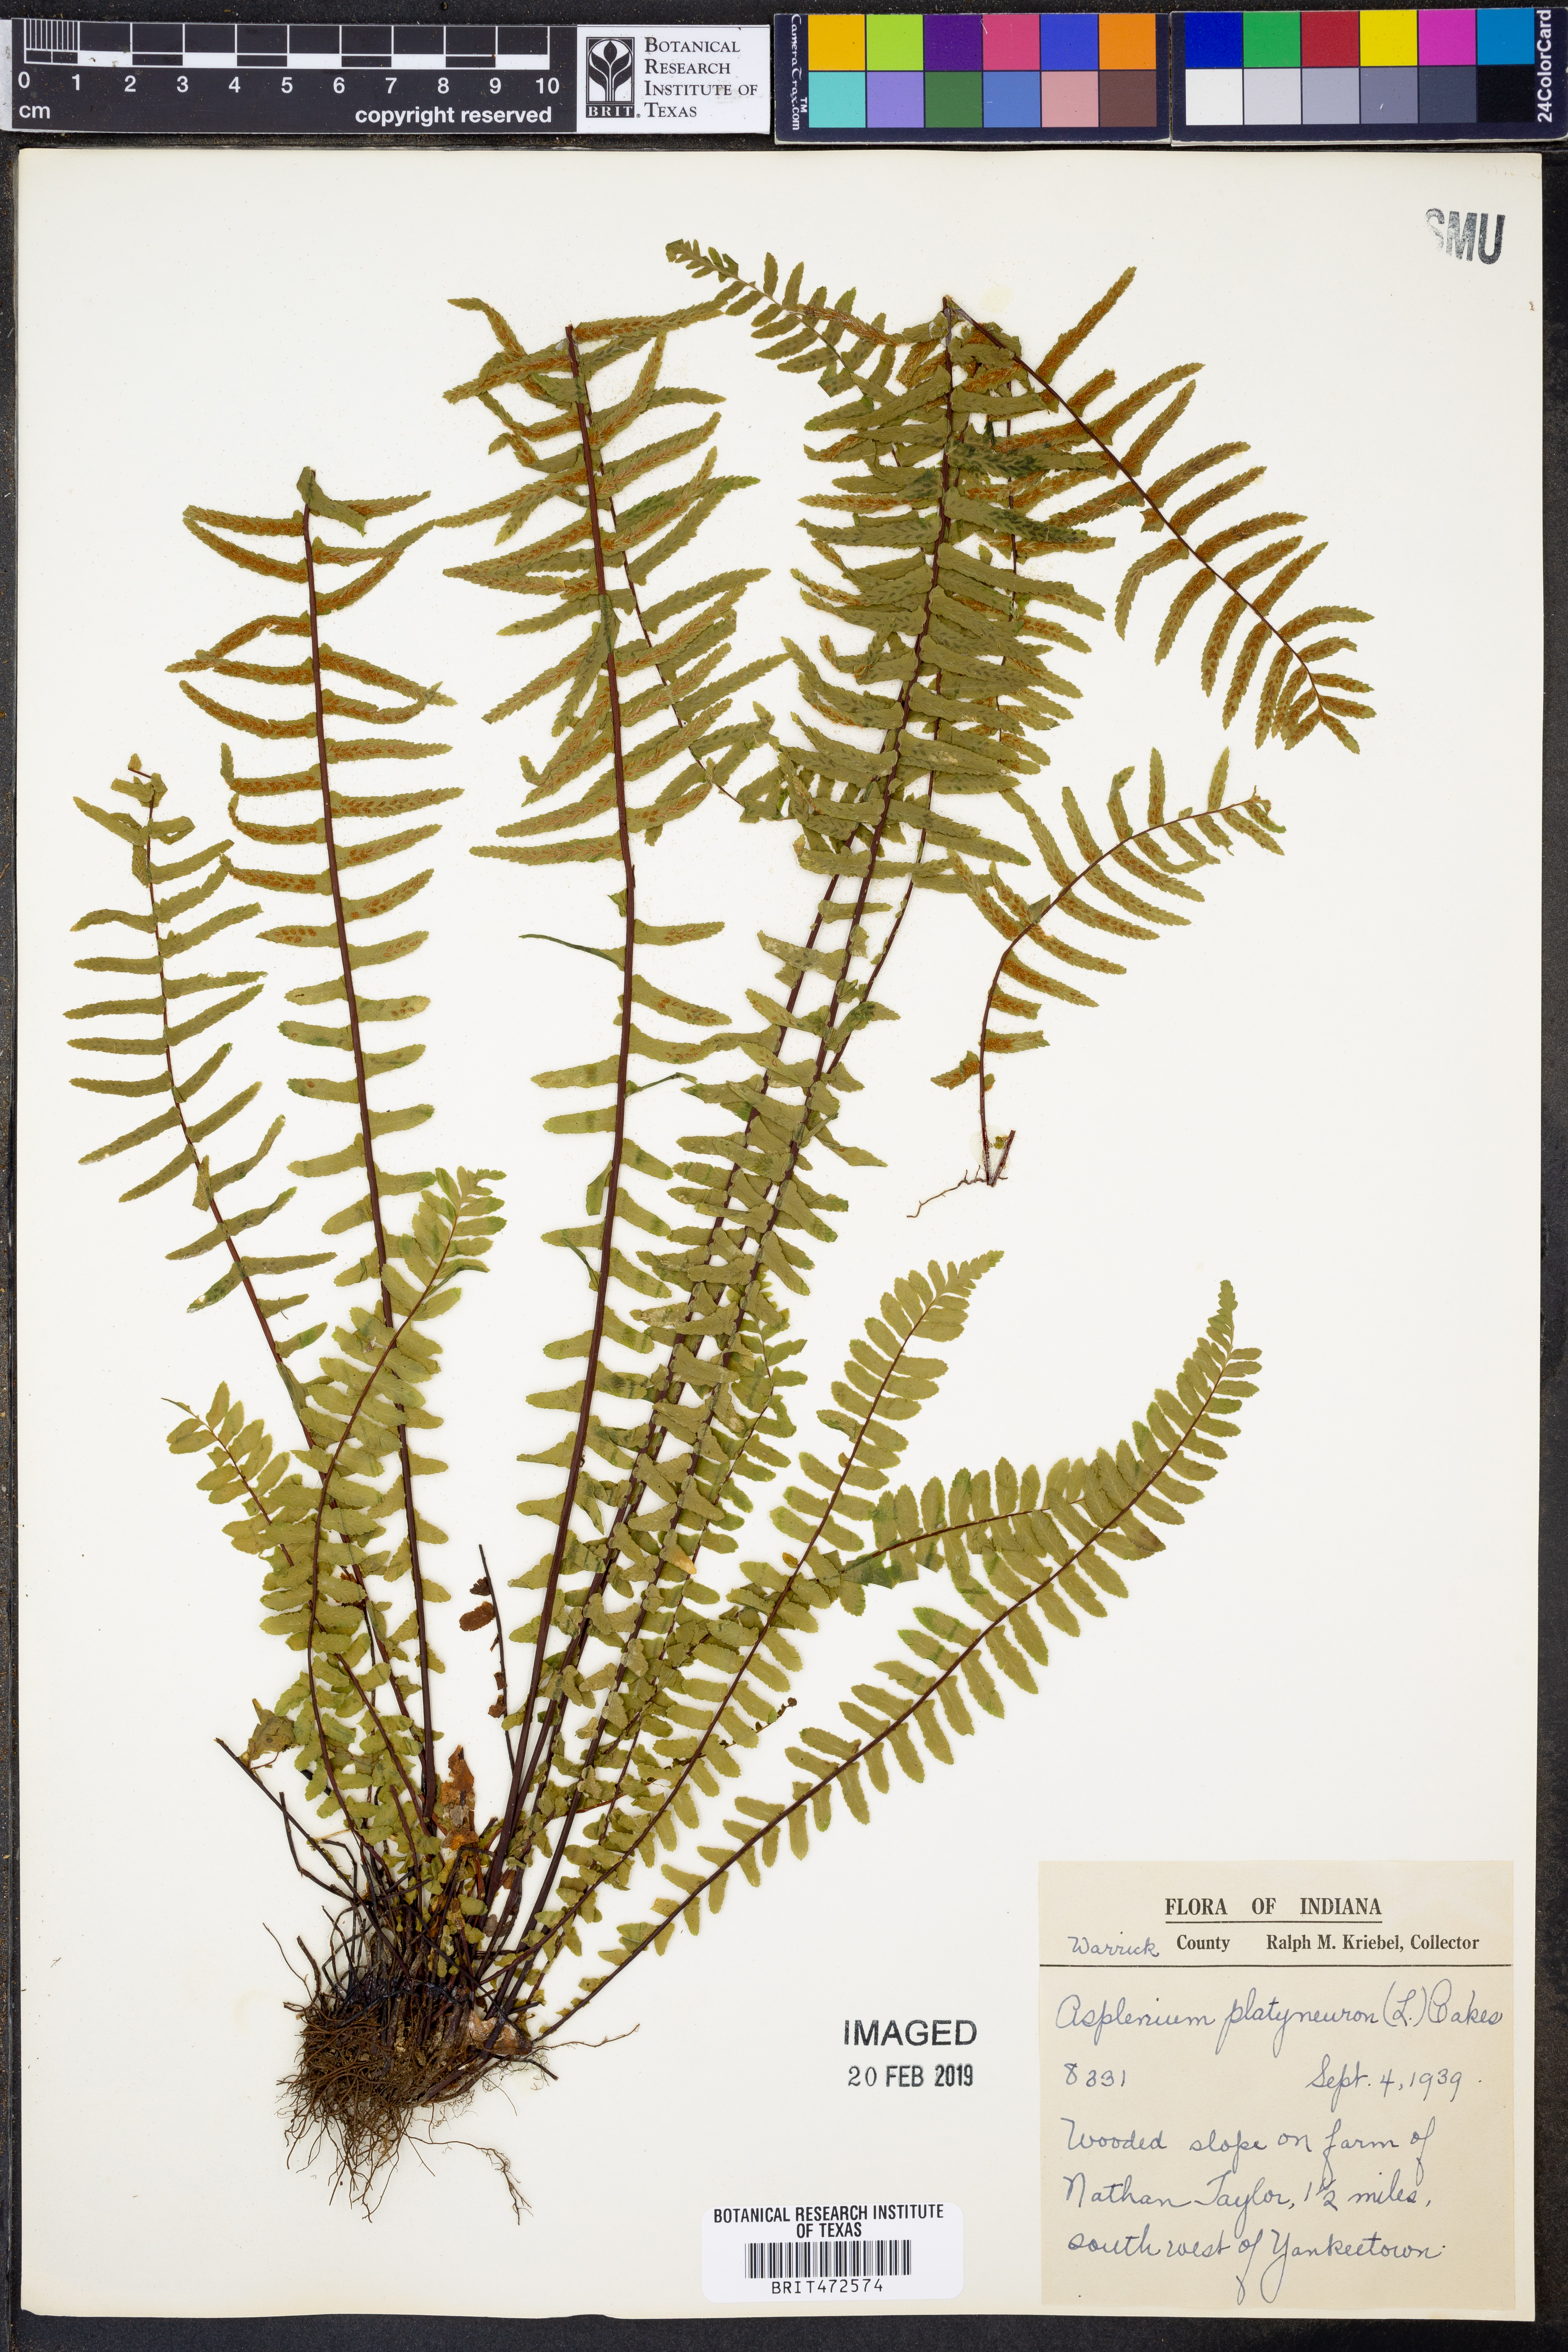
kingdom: Plantae
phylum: Tracheophyta
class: Polypodiopsida
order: Polypodiales
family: Aspleniaceae
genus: Asplenium
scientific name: Asplenium platyneuron
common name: Ebony spleenwort
